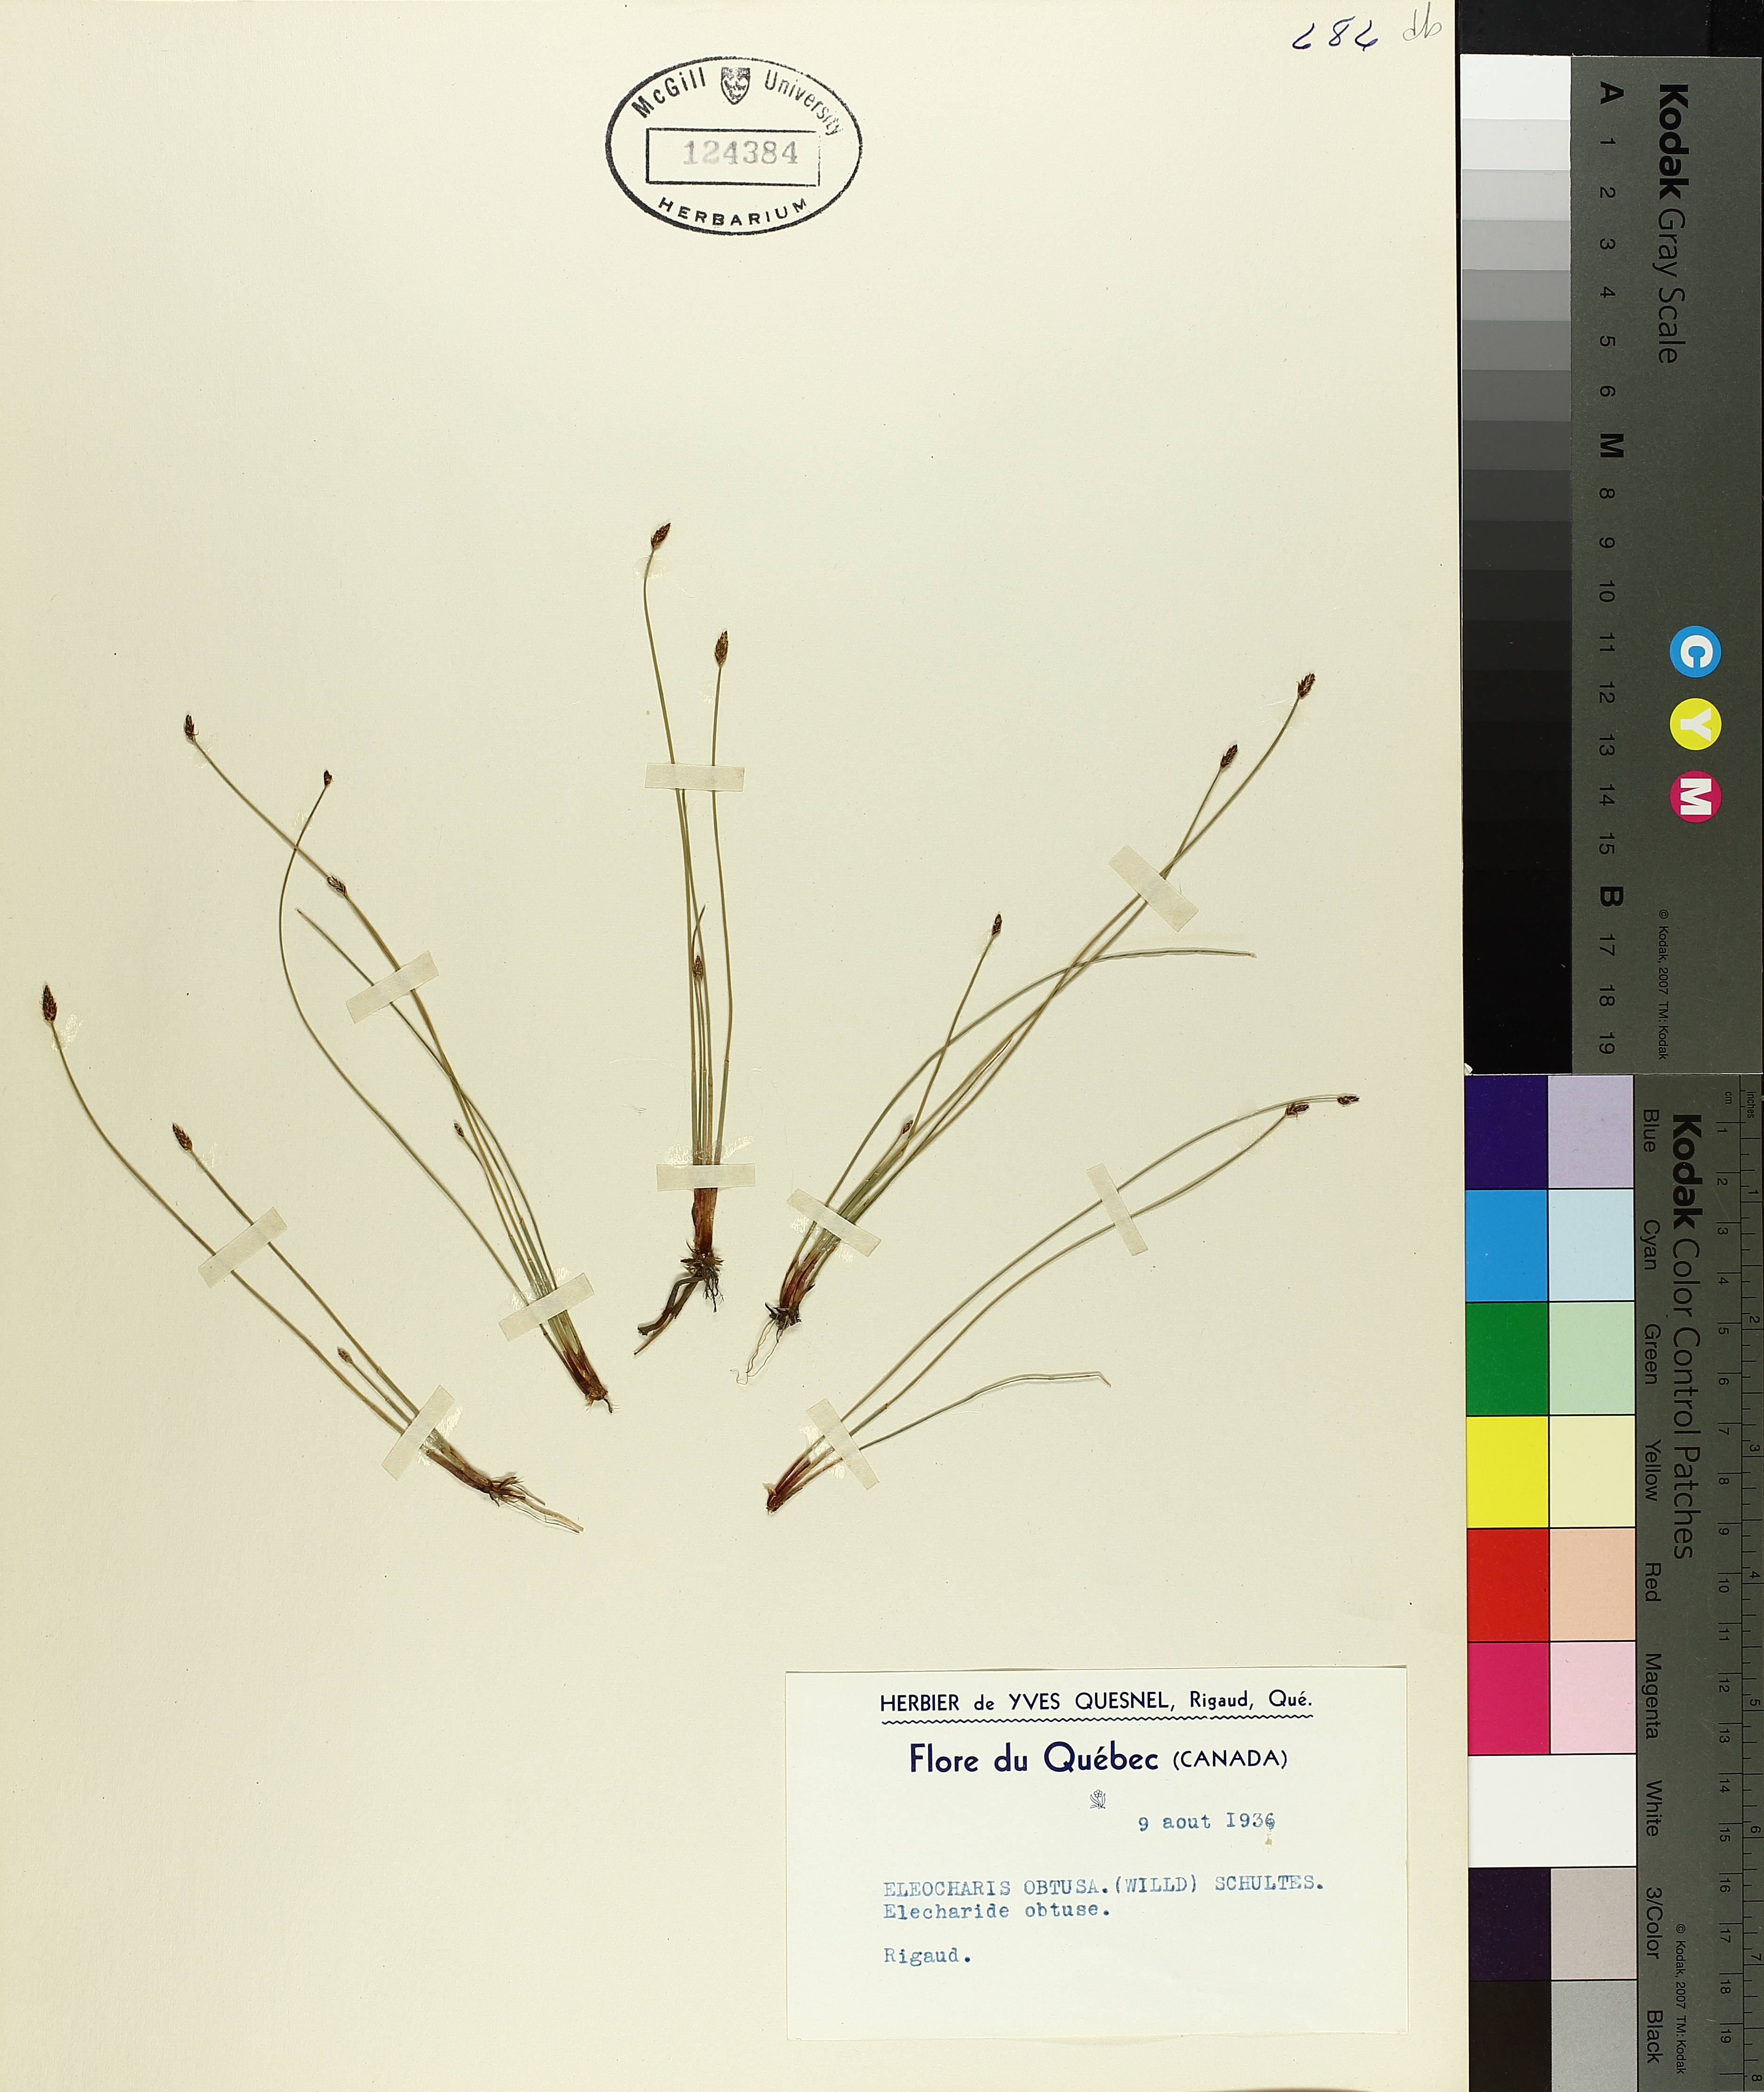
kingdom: Plantae
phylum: Tracheophyta
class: Liliopsida
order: Poales
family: Cyperaceae
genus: Eleocharis
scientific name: Eleocharis obtusa
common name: Blunt spikerush
